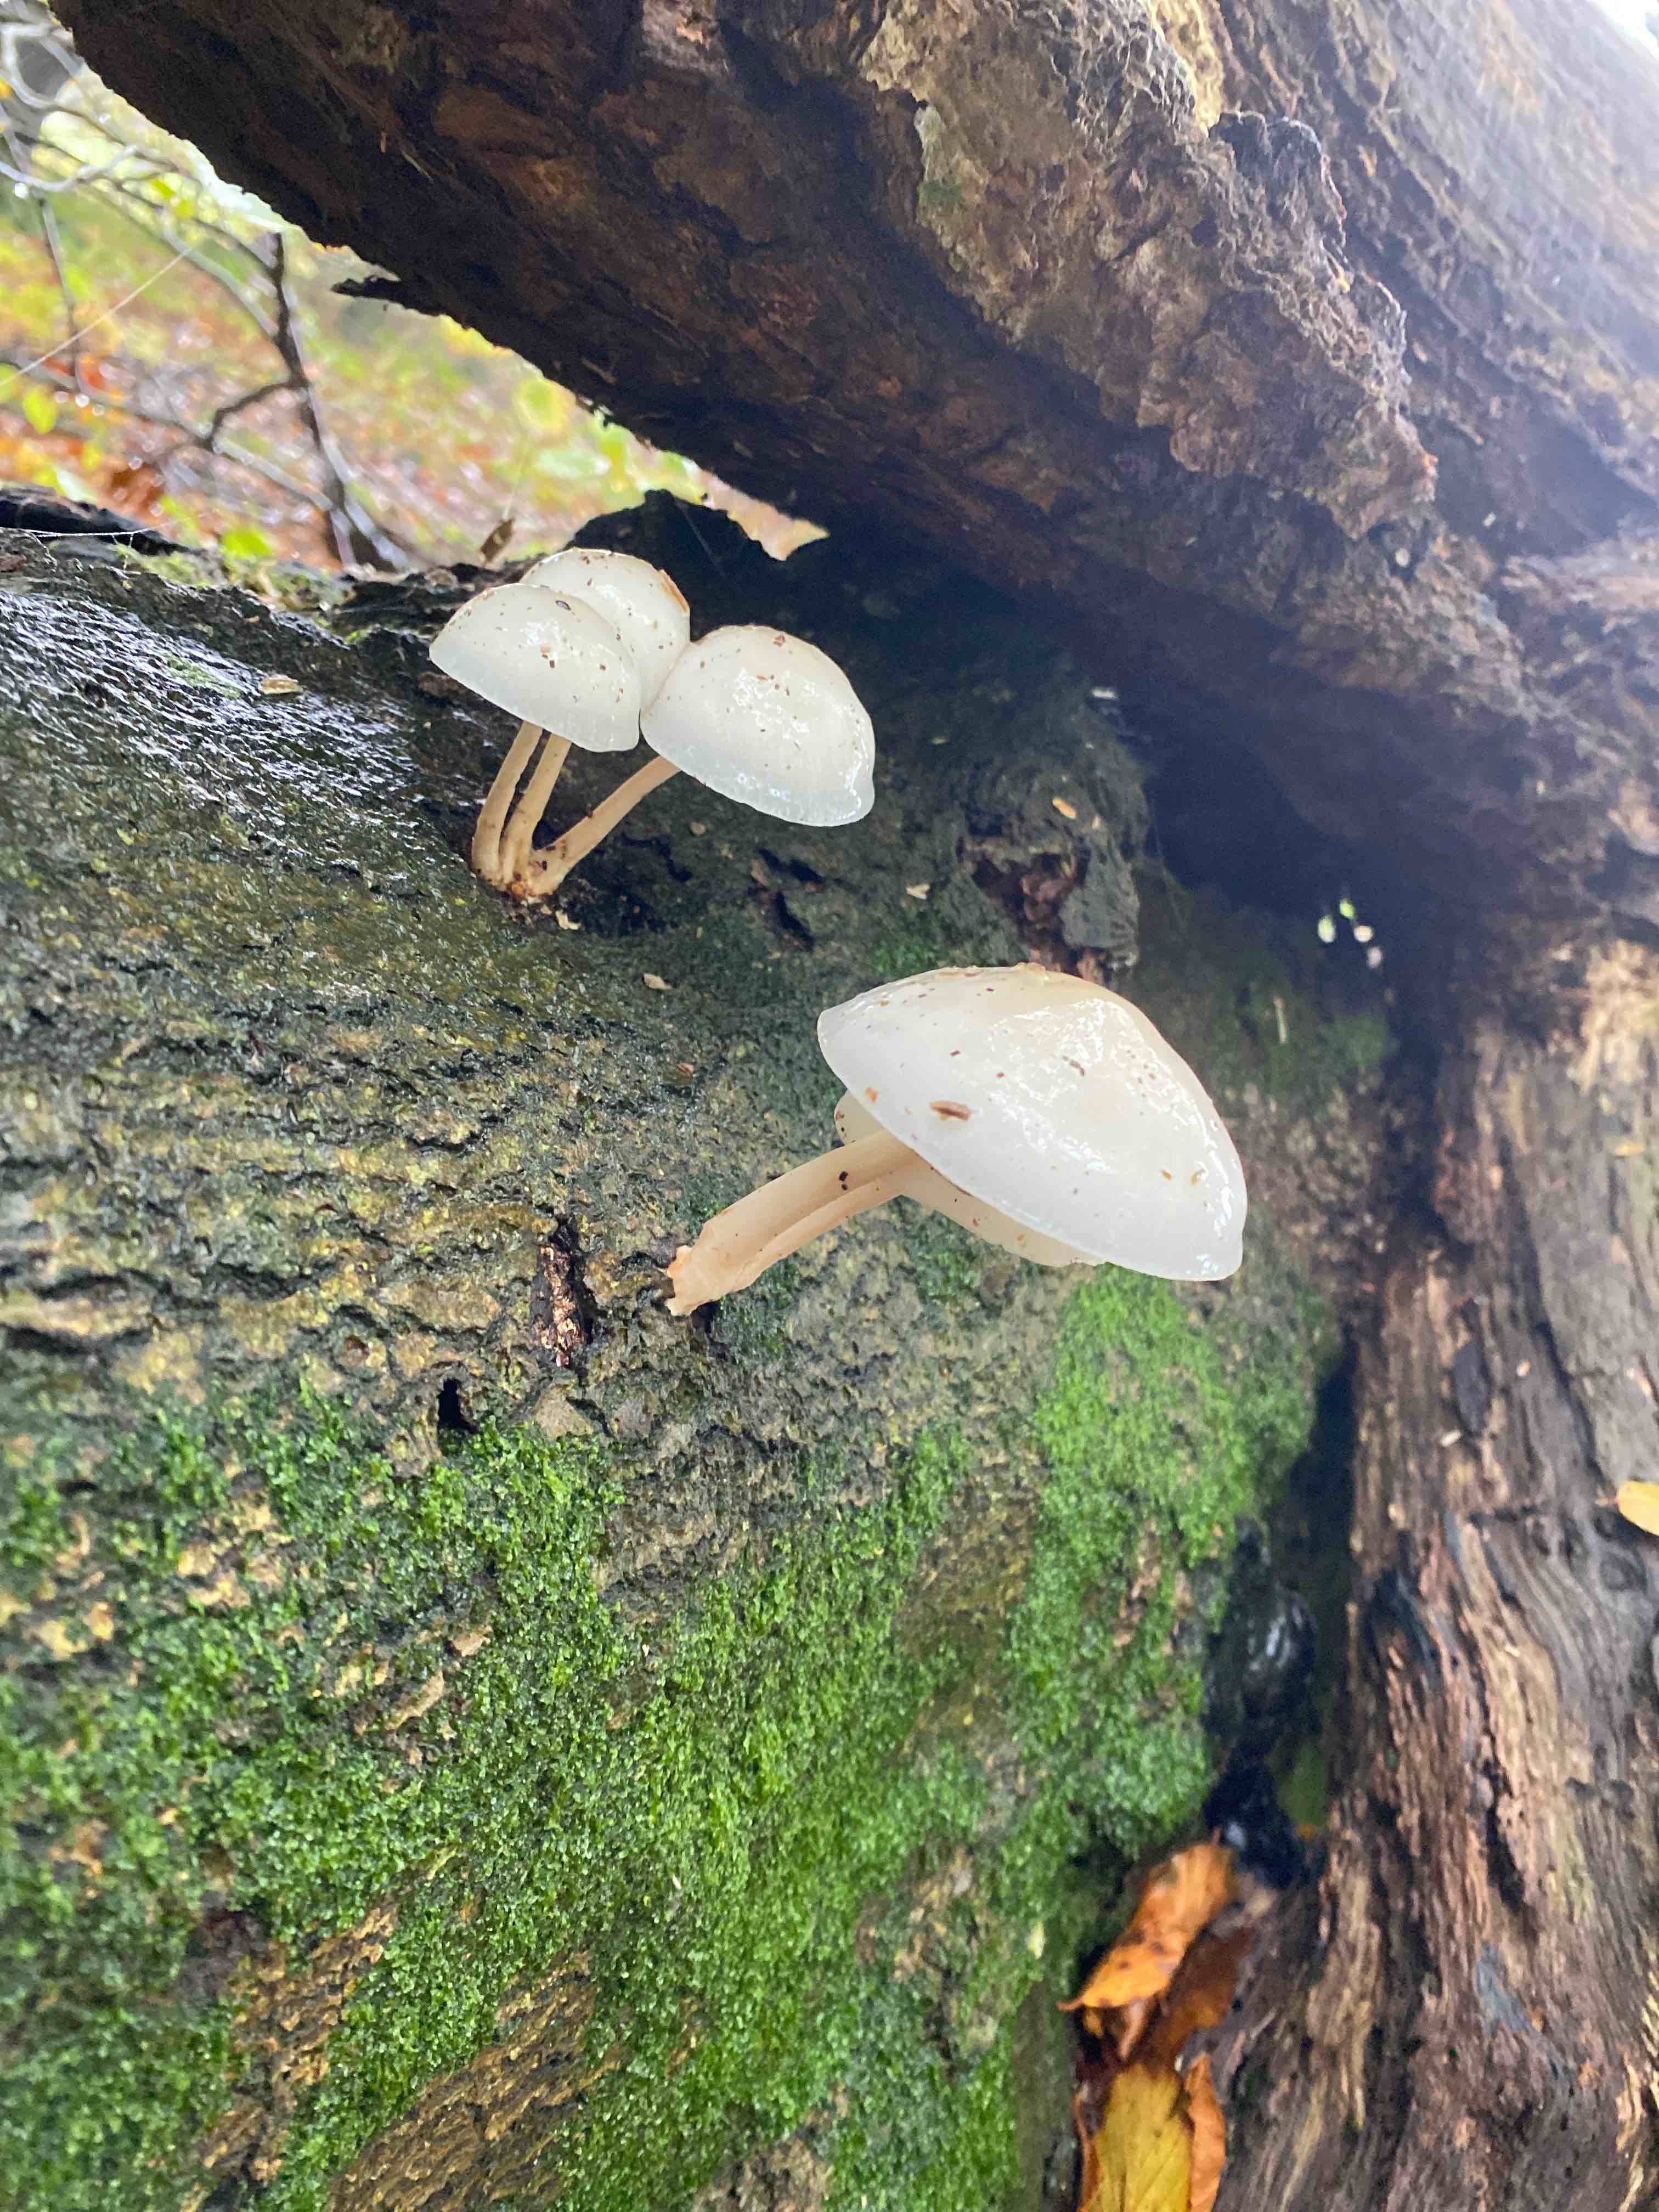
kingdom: Fungi
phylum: Basidiomycota
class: Agaricomycetes
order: Agaricales
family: Physalacriaceae
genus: Mucidula
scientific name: Mucidula mucida
